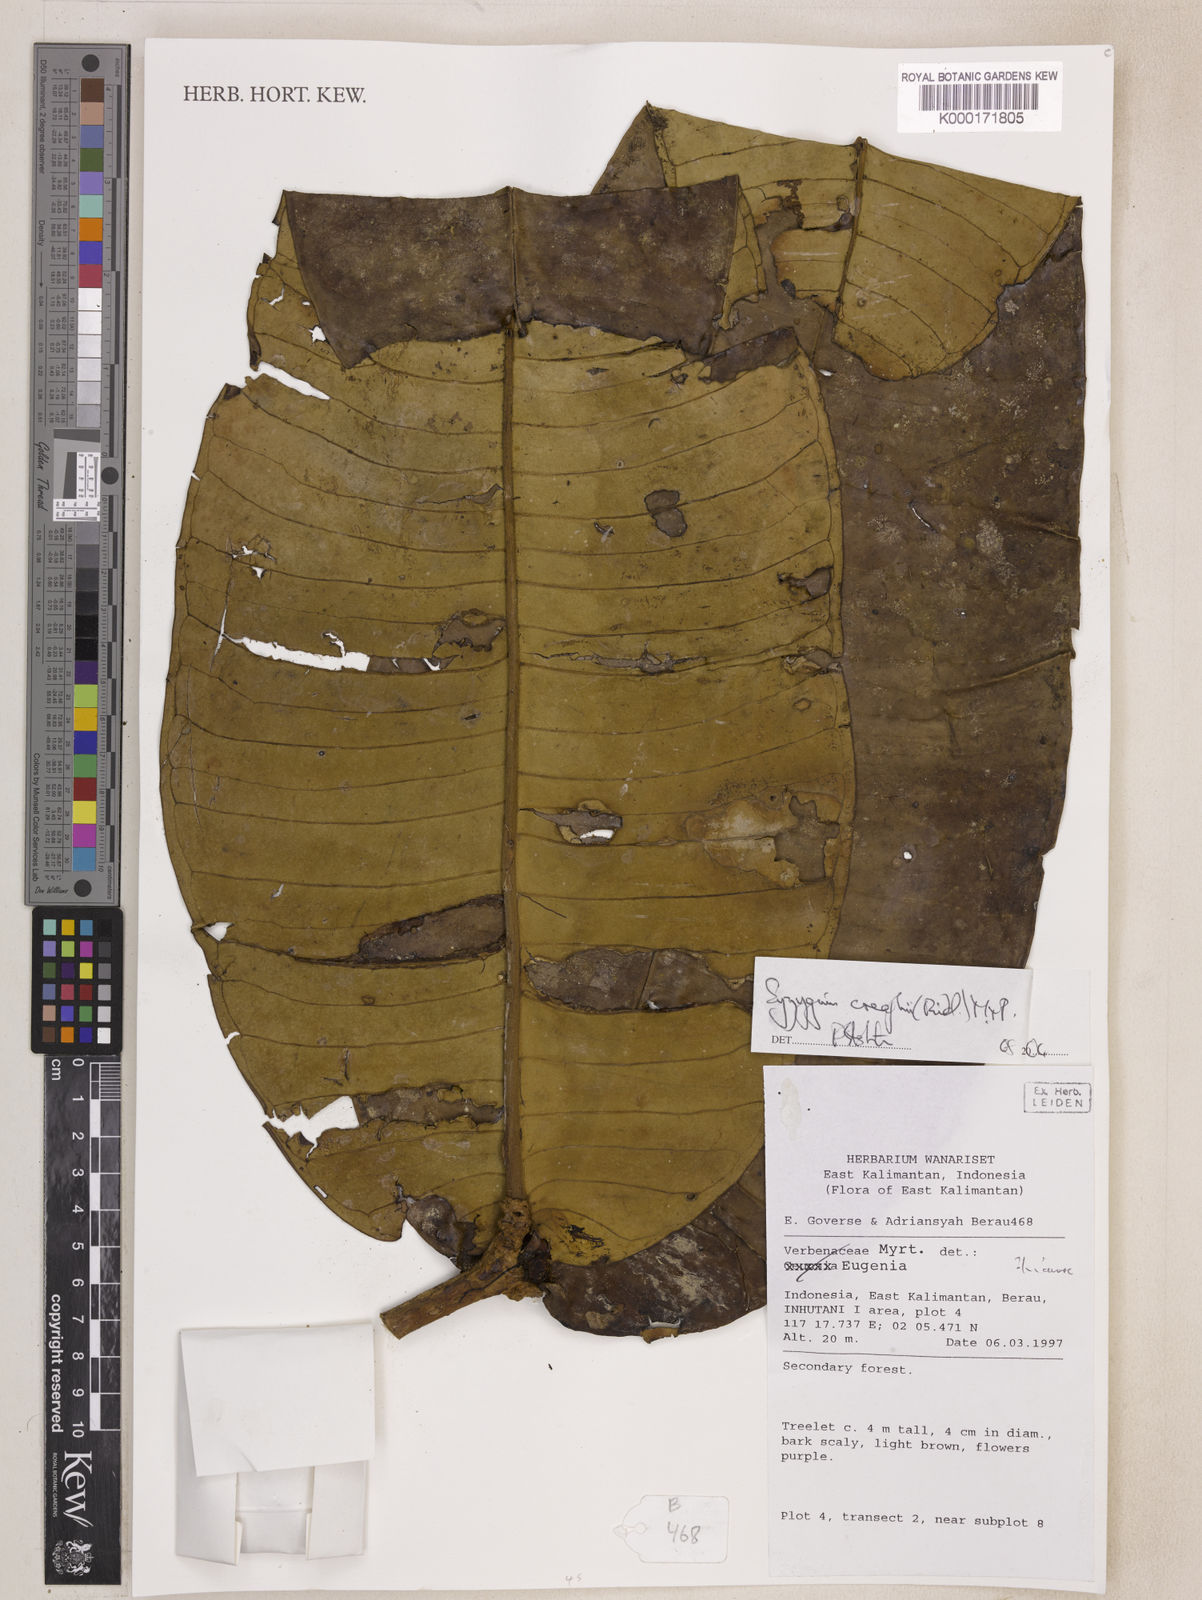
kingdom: Plantae
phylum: Tracheophyta
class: Magnoliopsida
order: Myrtales
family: Myrtaceae
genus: Syzygium
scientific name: Syzygium creaghii
